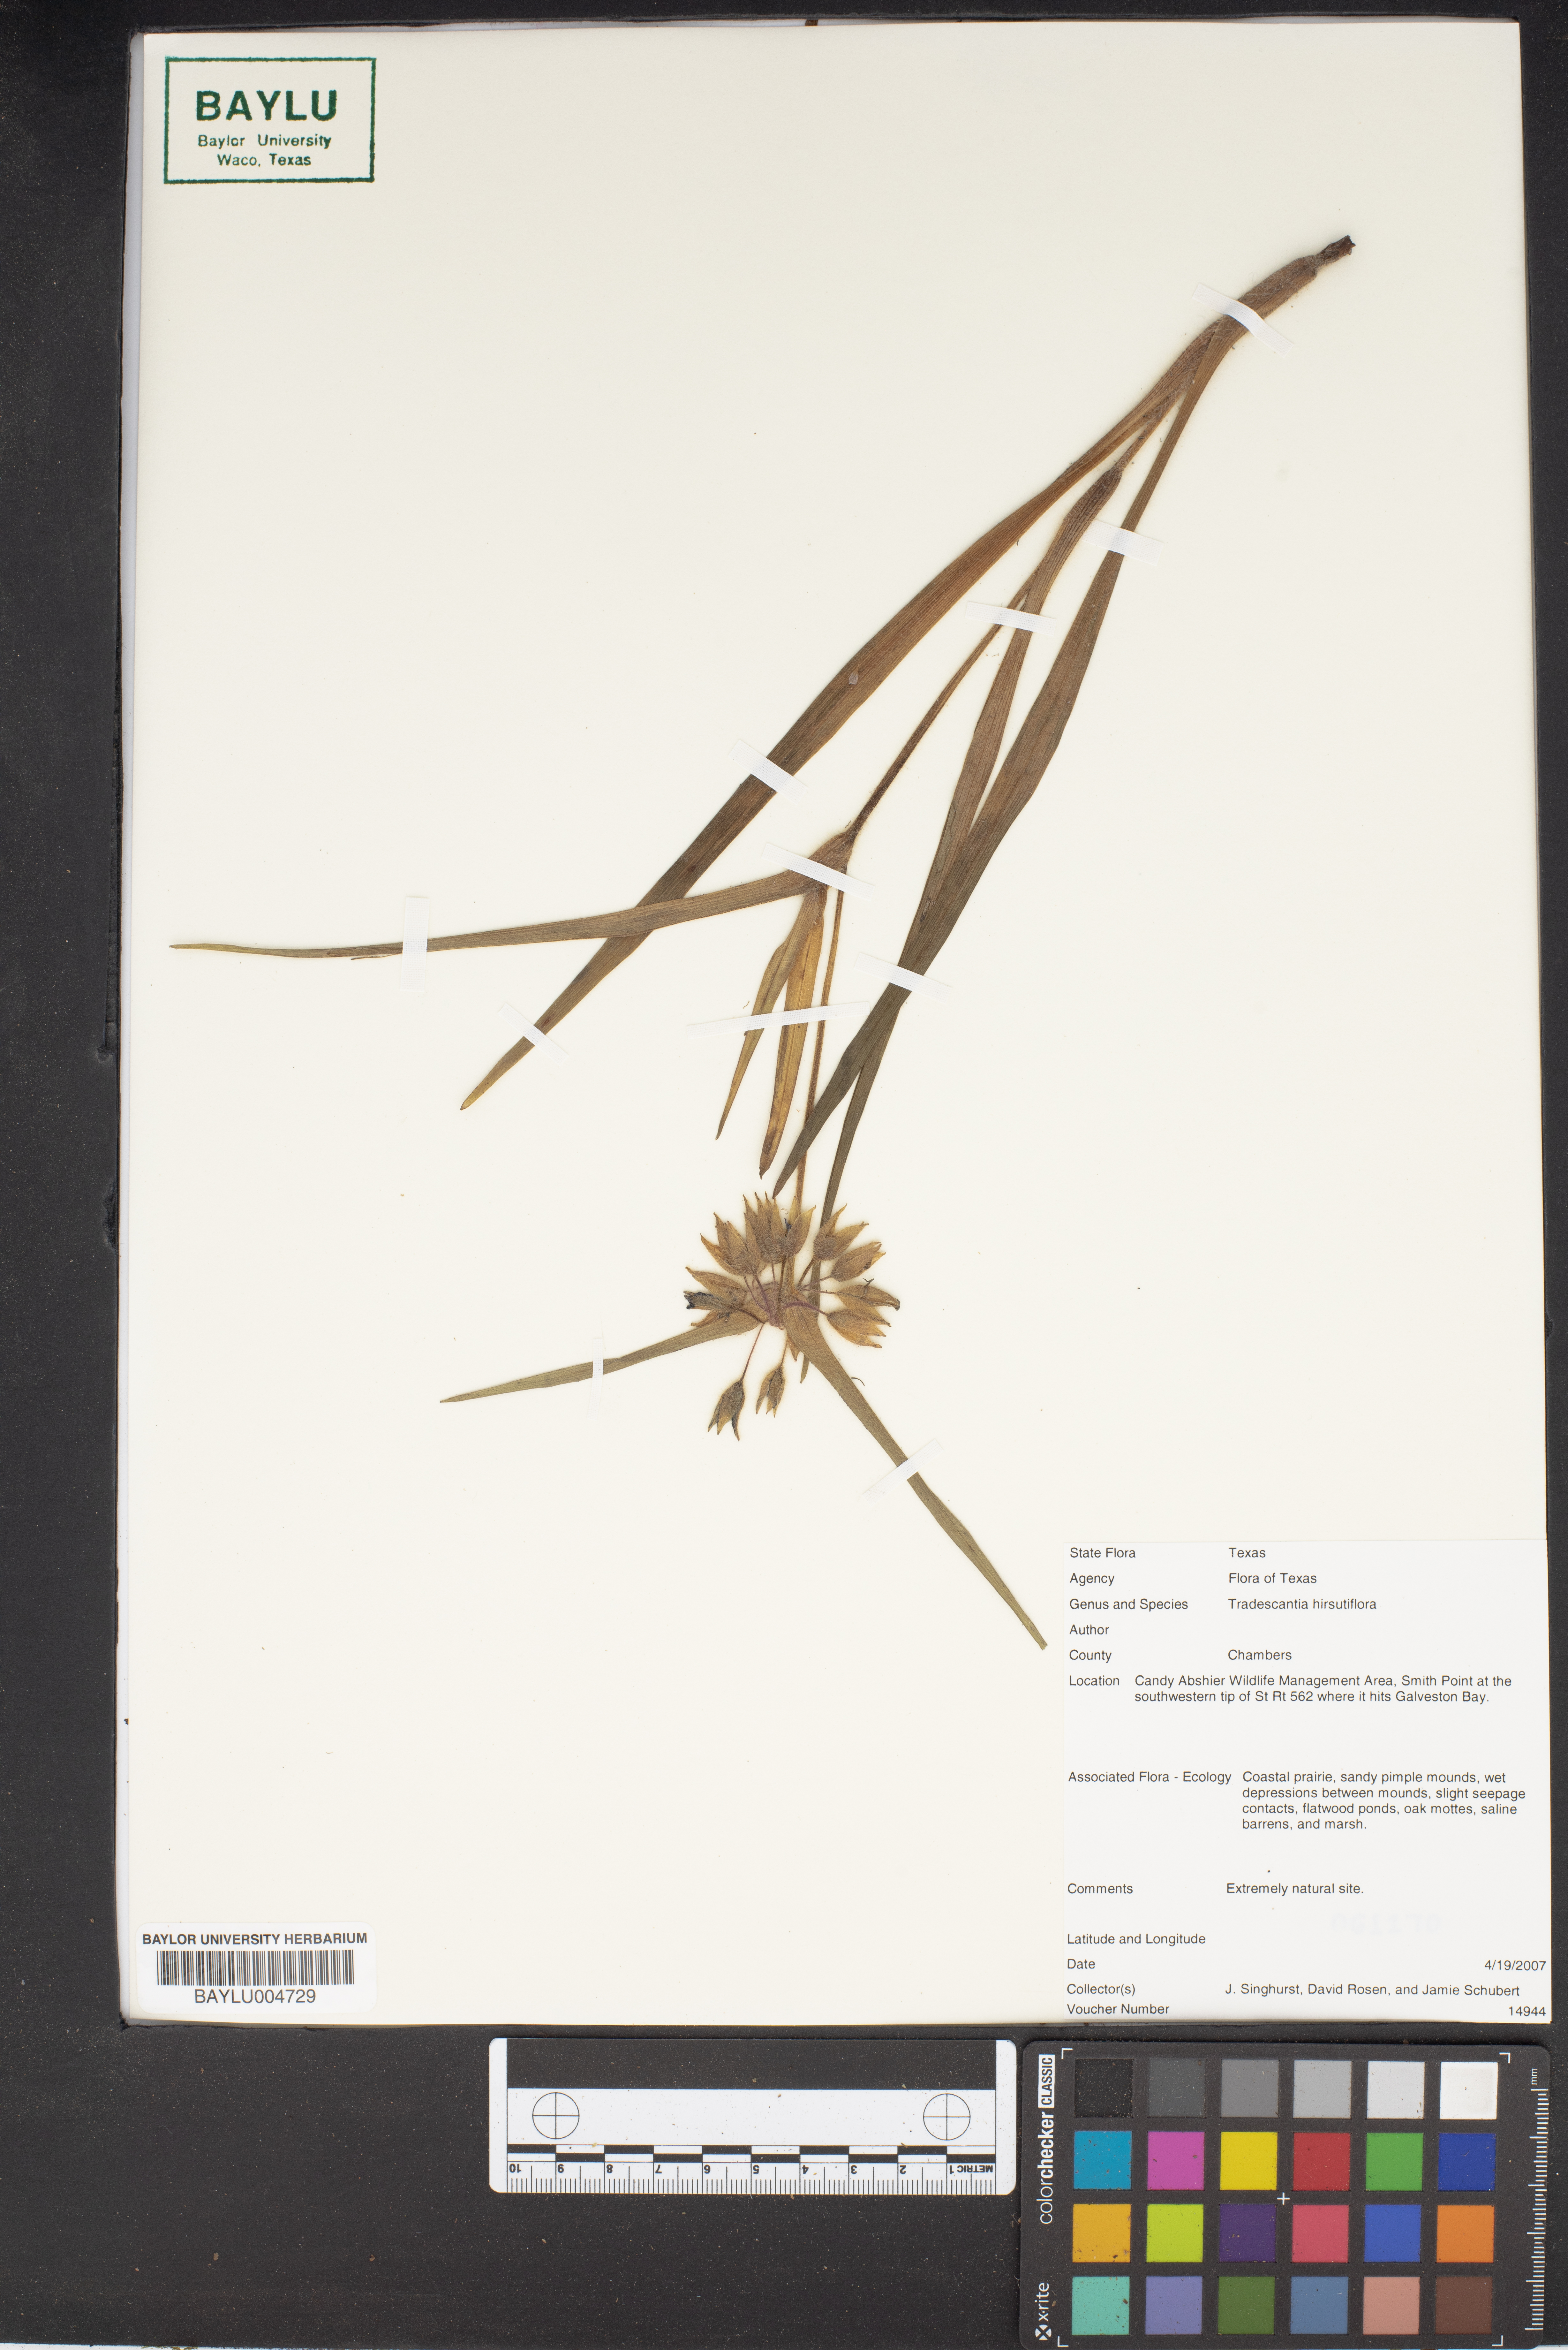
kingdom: Plantae
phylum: Tracheophyta
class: Liliopsida
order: Commelinales
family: Commelinaceae
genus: Tradescantia
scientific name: Tradescantia hirsutiflora
